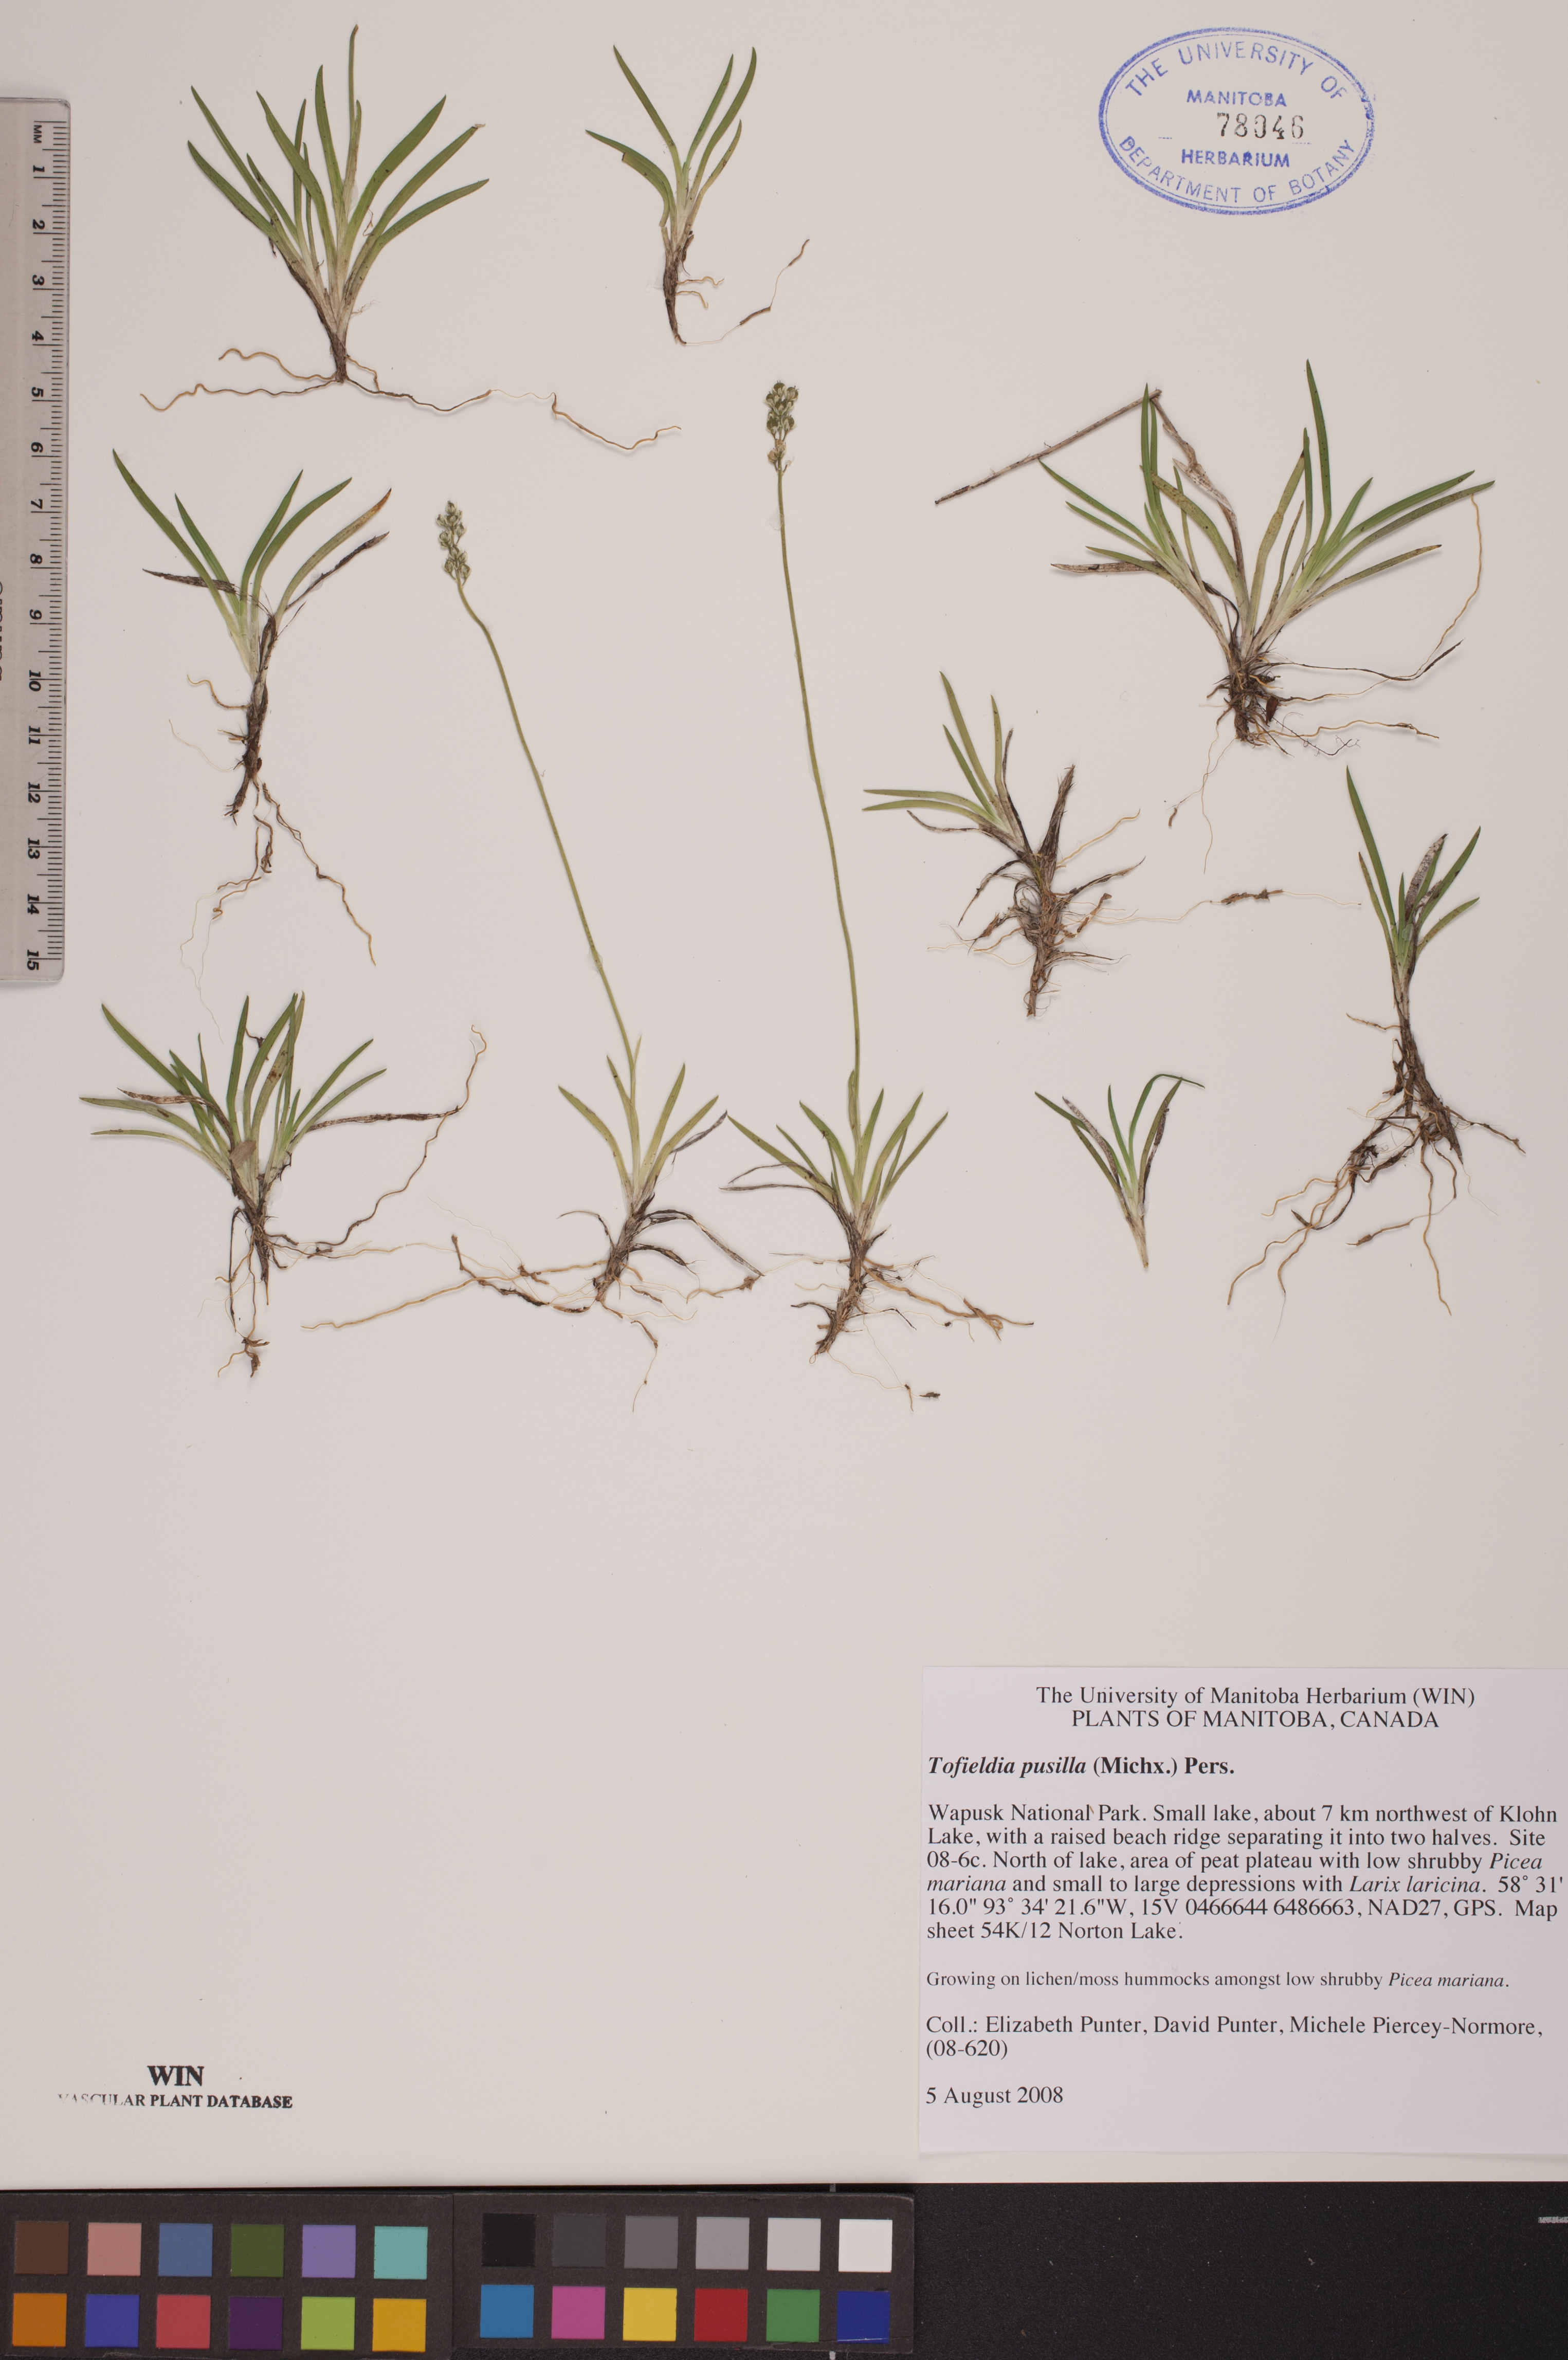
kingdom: Plantae
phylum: Tracheophyta
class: Liliopsida
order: Alismatales
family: Tofieldiaceae
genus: Tofieldia
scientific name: Tofieldia pusilla
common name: Scottish false asphodel
